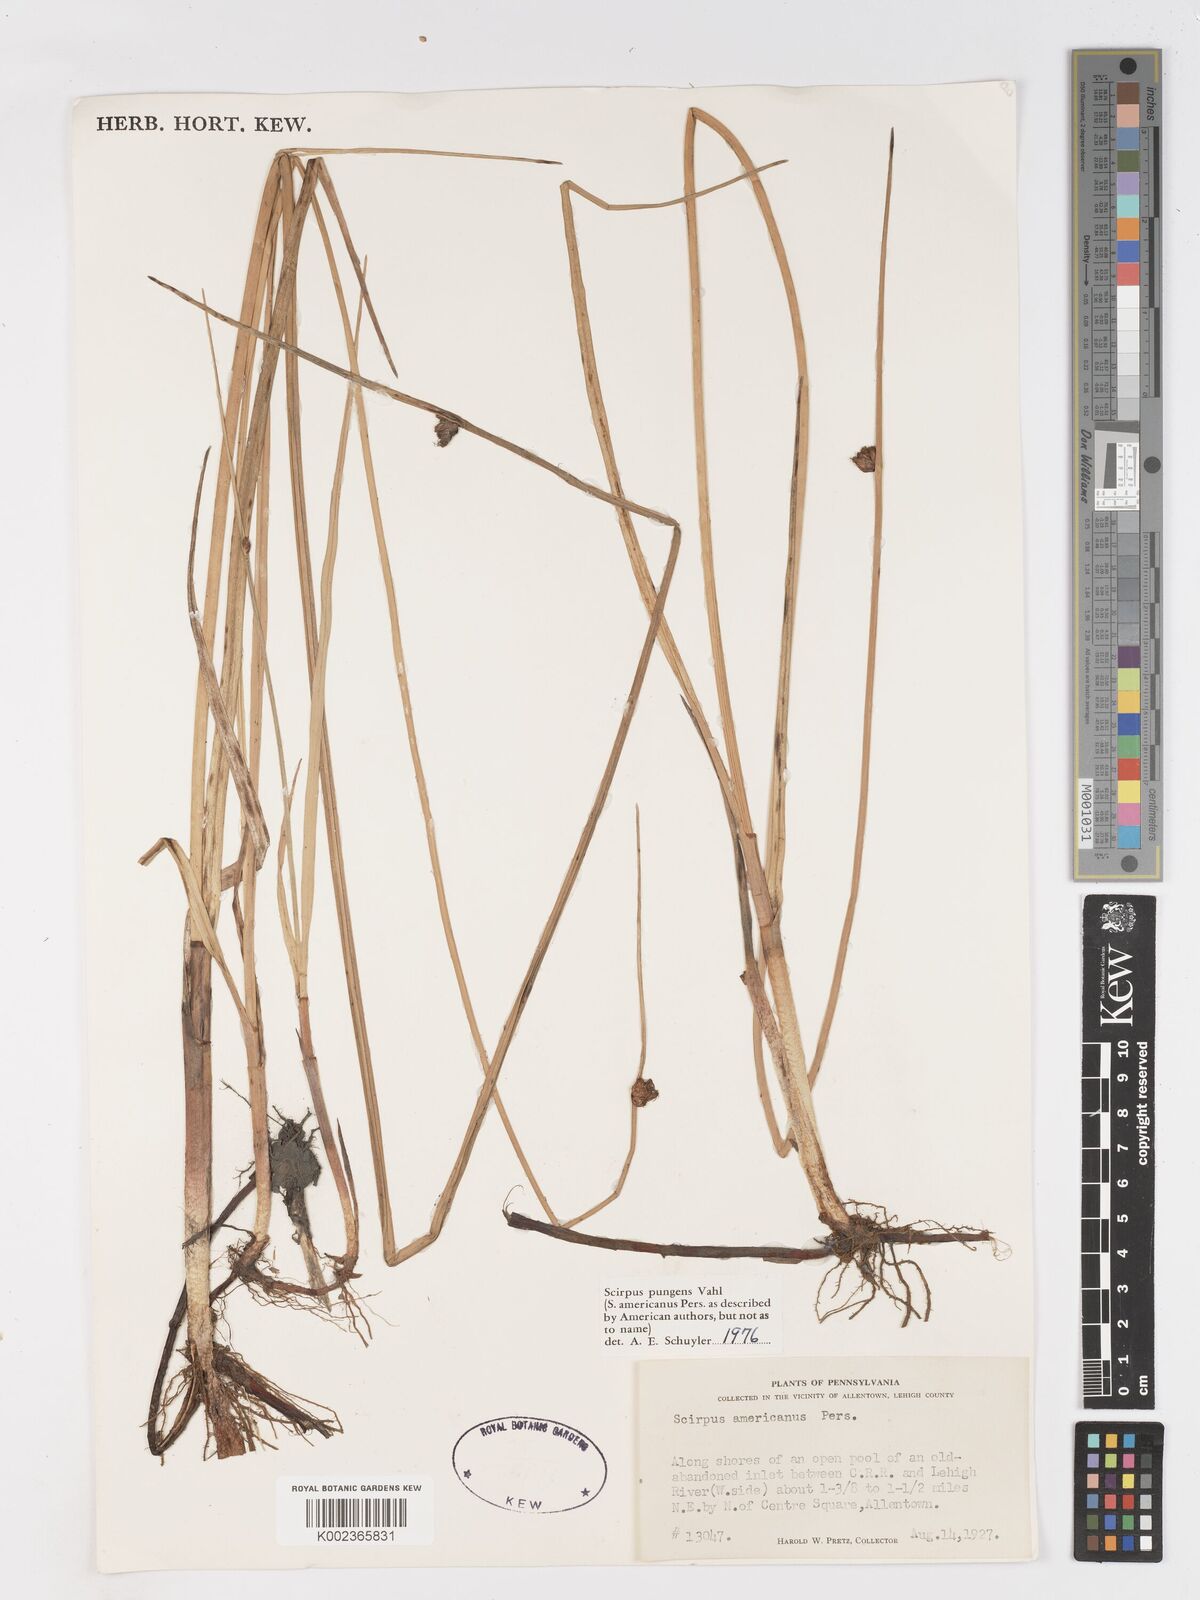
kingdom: Plantae
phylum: Tracheophyta
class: Liliopsida
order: Poales
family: Cyperaceae
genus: Schoenoplectus
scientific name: Schoenoplectus pungens
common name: Sharp club-rush
